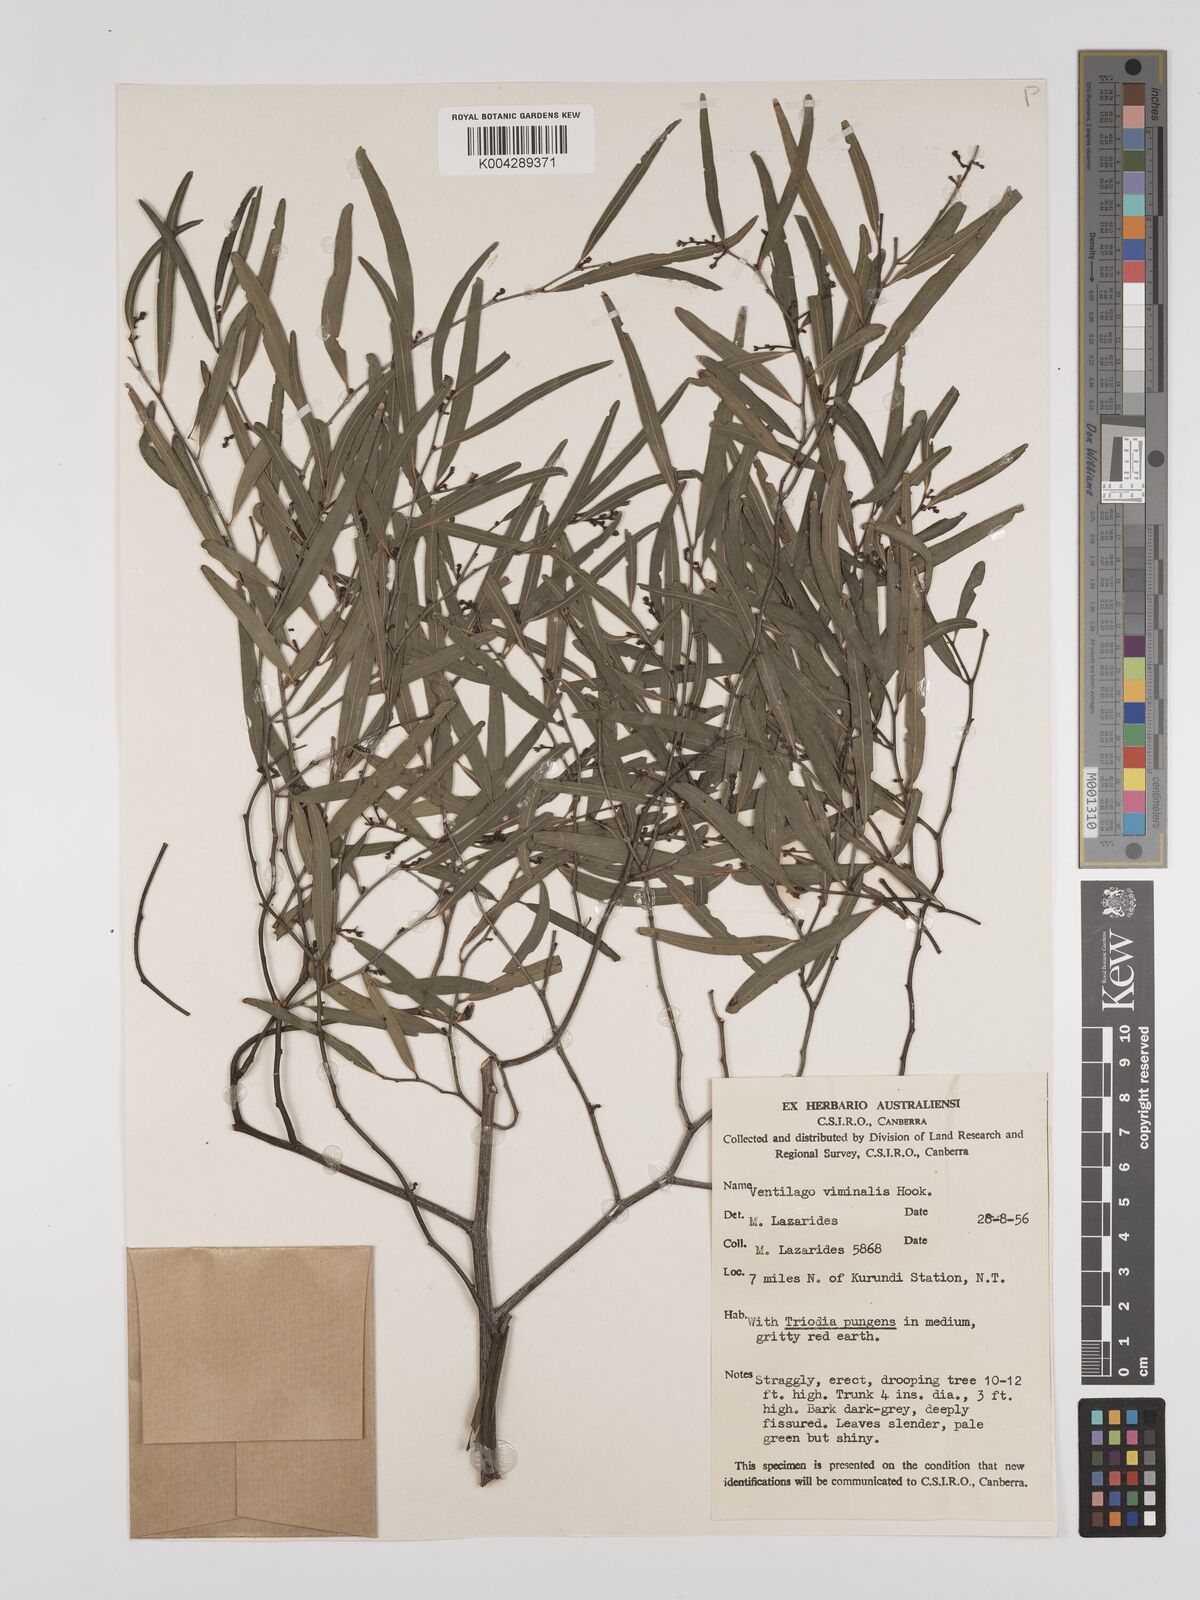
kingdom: Plantae
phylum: Tracheophyta
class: Magnoliopsida
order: Rosales
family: Rhamnaceae
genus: Ventilago
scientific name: Ventilago viminalis
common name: Medicine-bark
